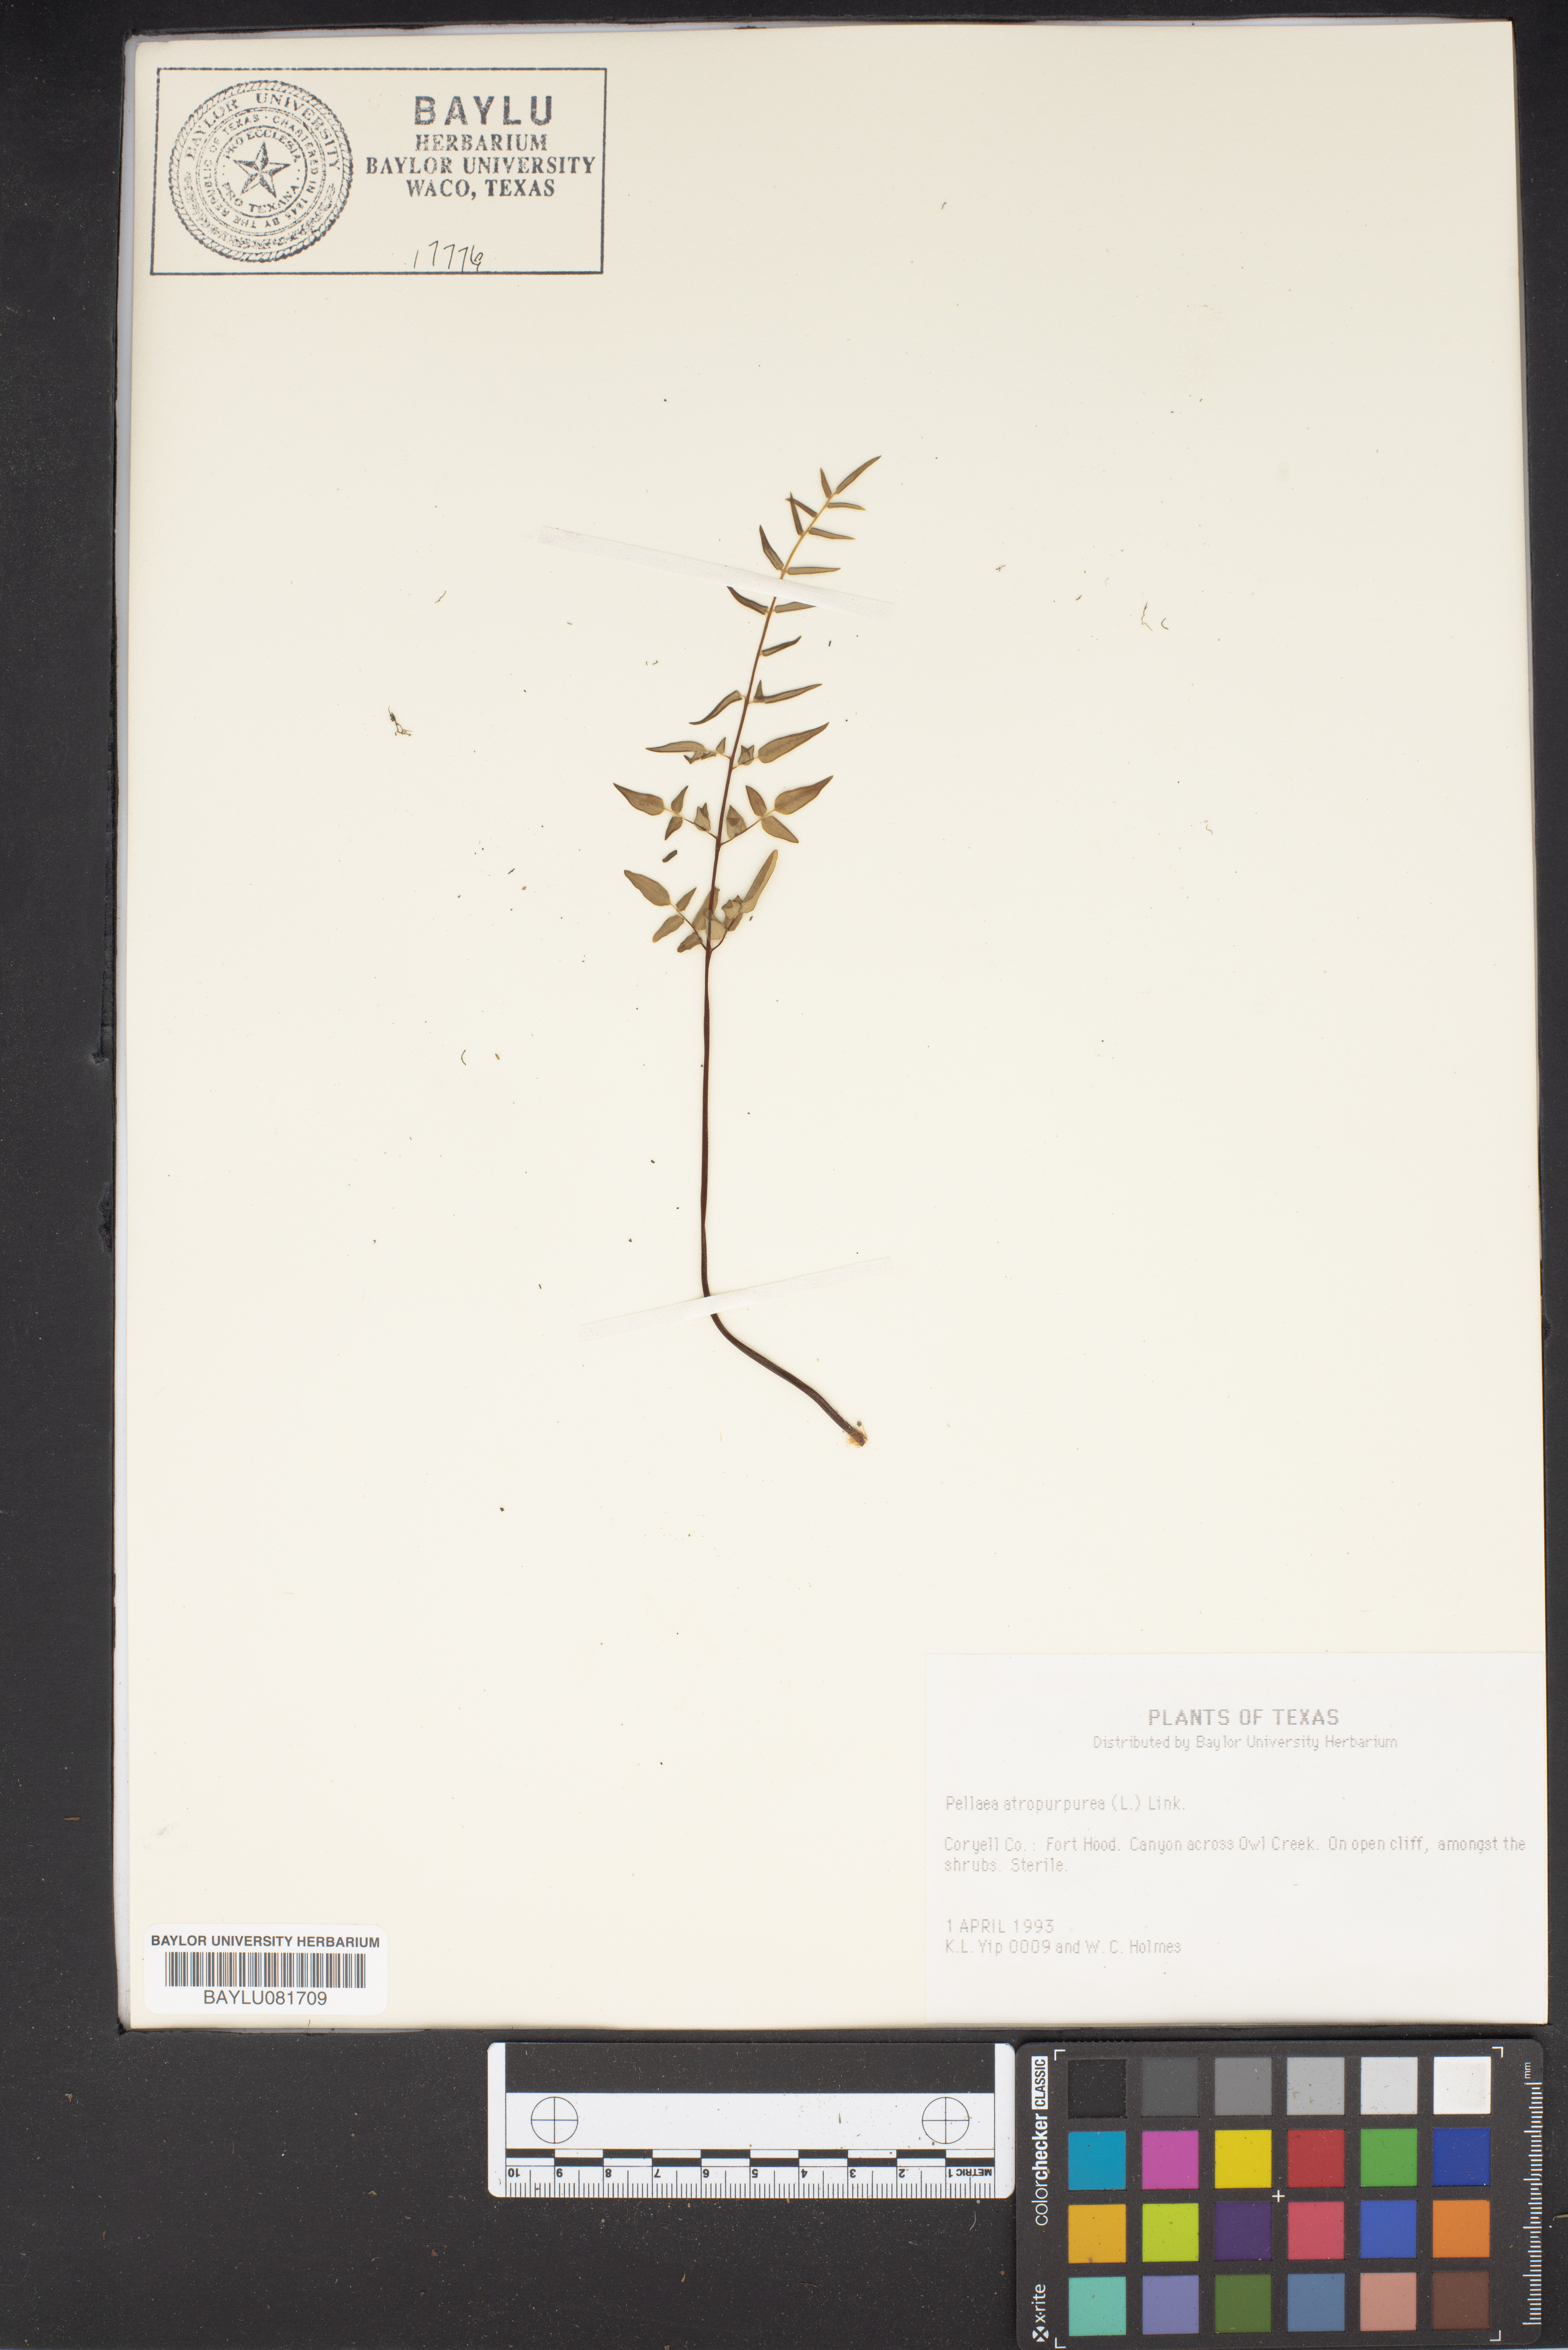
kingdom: Plantae
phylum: Tracheophyta
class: Polypodiopsida
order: Polypodiales
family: Pteridaceae
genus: Pellaea
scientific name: Pellaea atropurpurea
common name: Hairy cliffbrake
